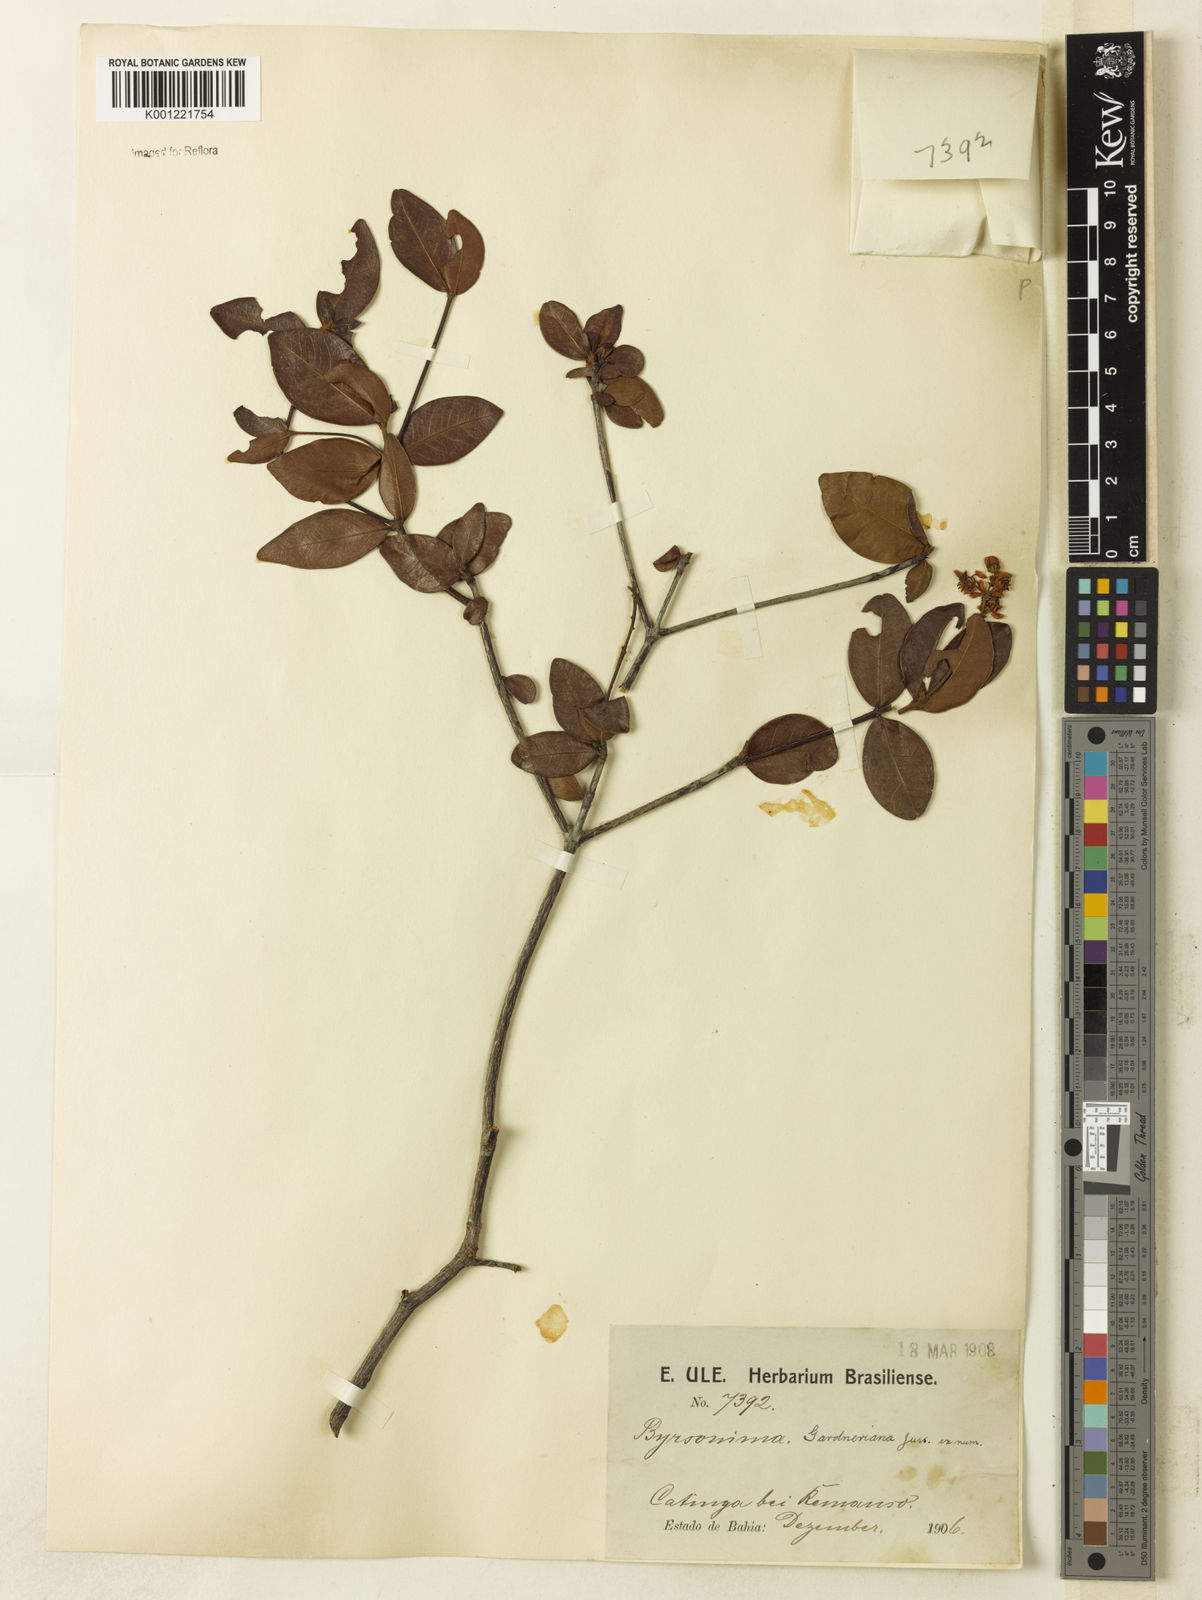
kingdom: Plantae
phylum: Tracheophyta
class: Magnoliopsida
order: Malpighiales
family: Malpighiaceae
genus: Byrsonima
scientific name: Byrsonima gardneriana
